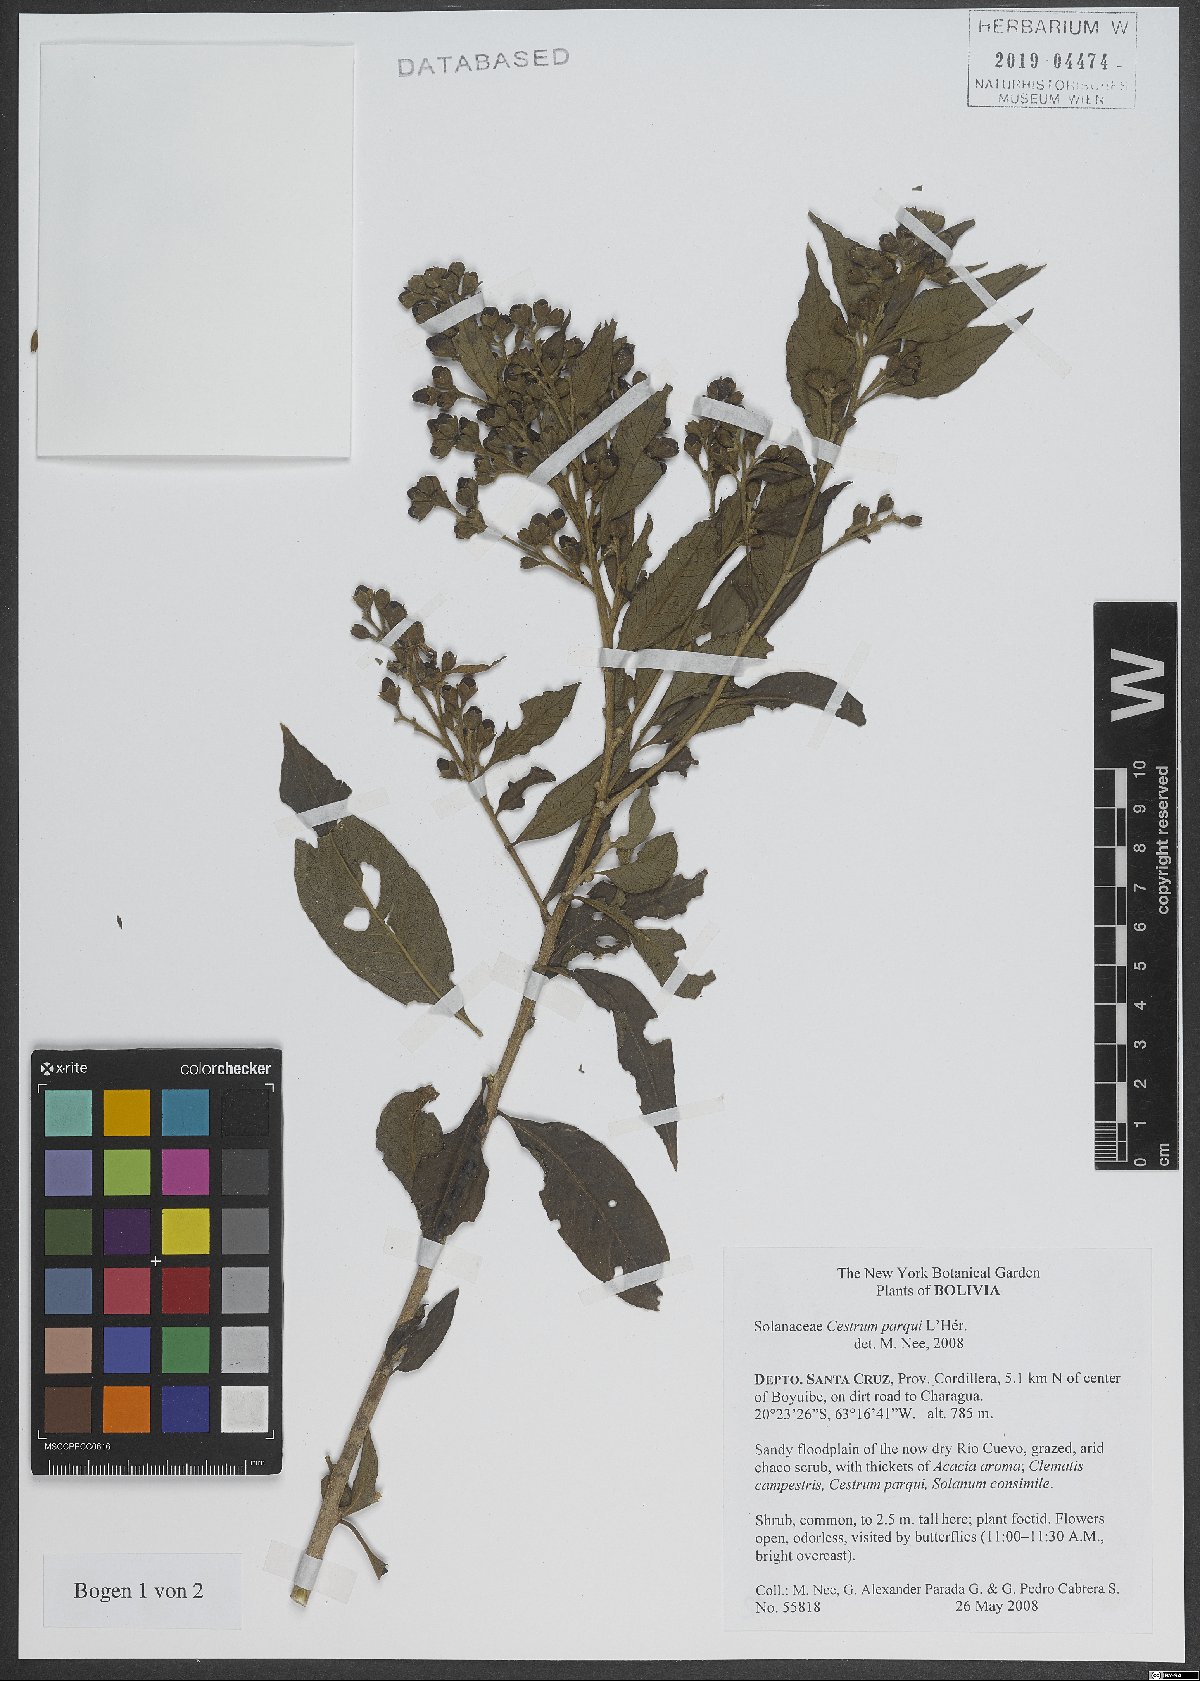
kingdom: Plantae
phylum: Tracheophyta
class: Magnoliopsida
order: Solanales
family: Solanaceae
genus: Cestrum
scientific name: Cestrum thyrsoideum
